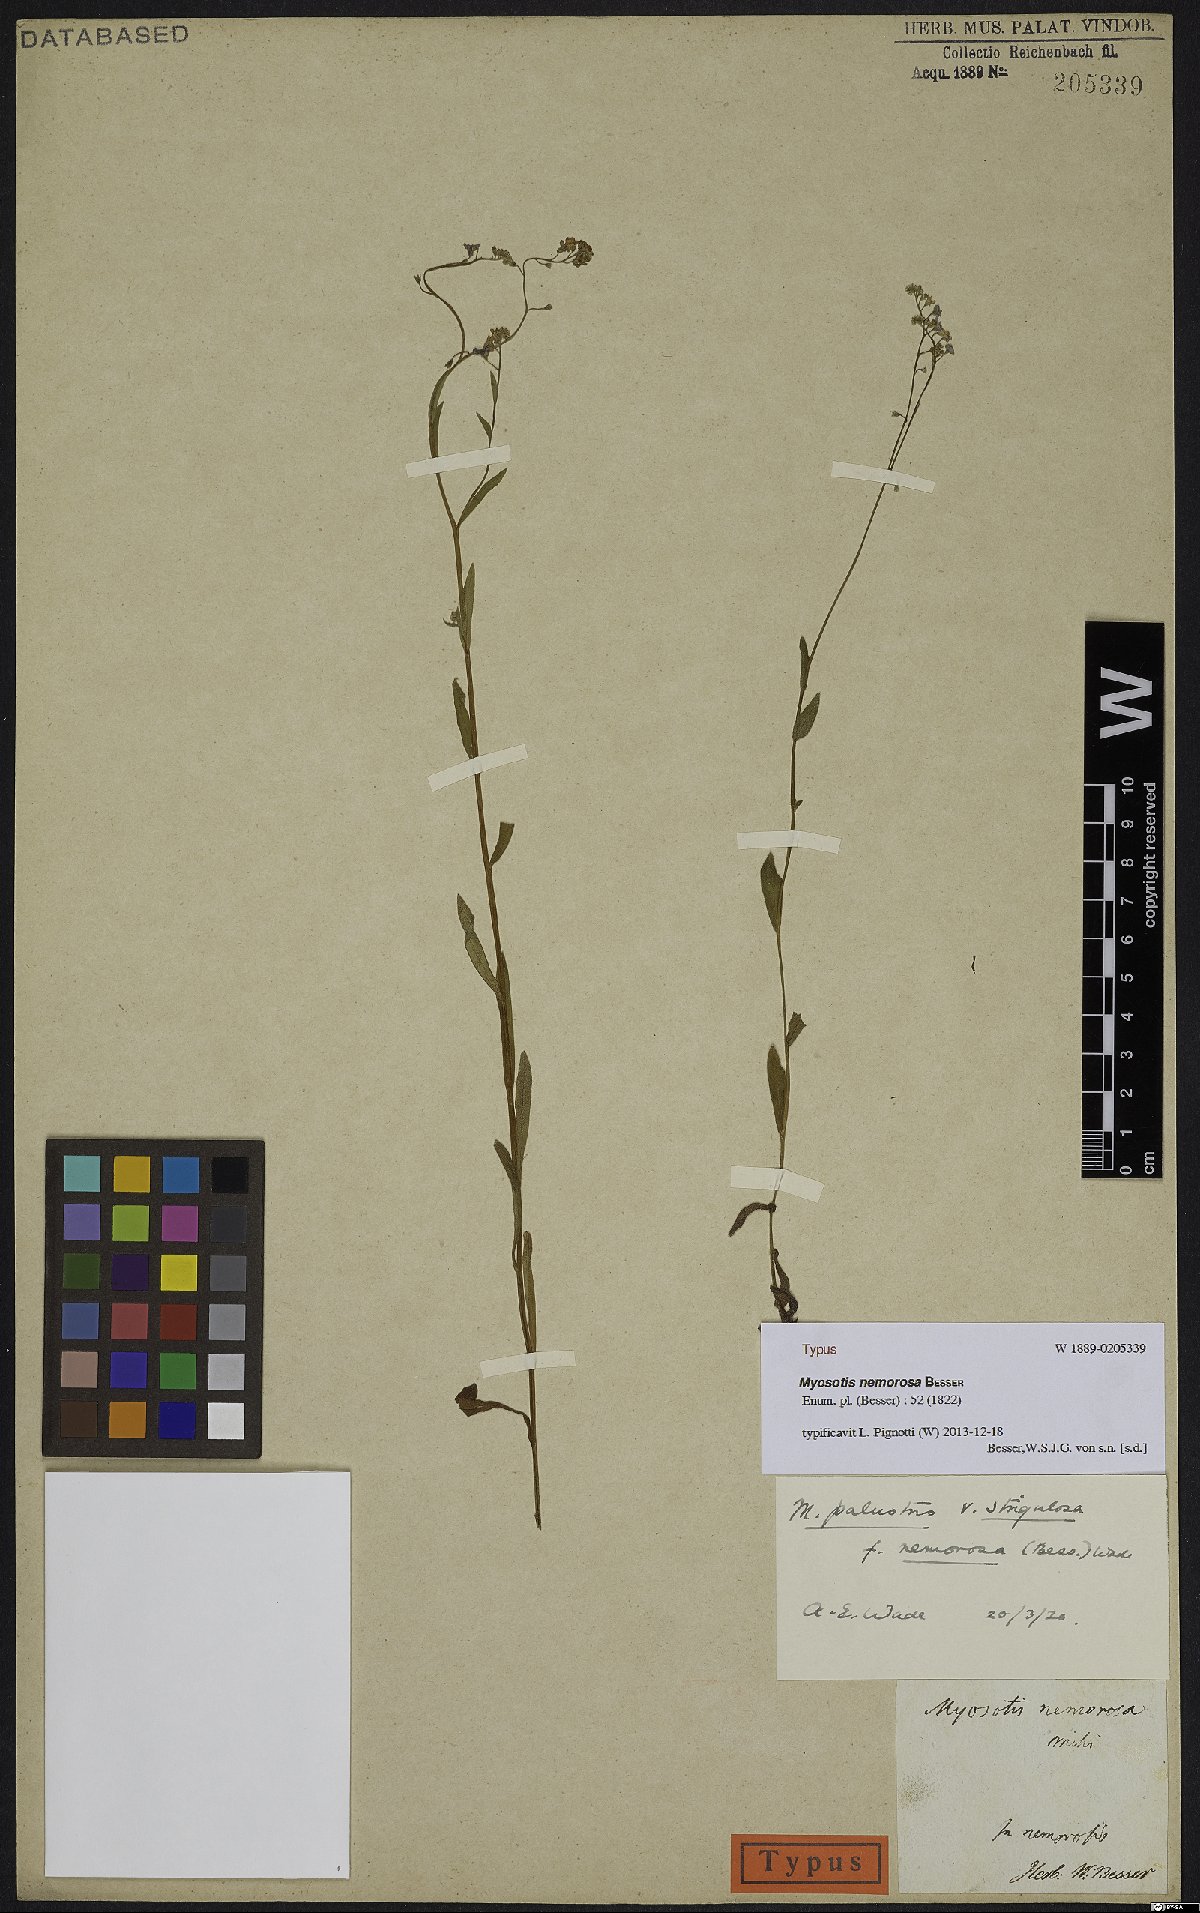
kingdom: Plantae
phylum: Tracheophyta
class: Magnoliopsida
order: Boraginales
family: Boraginaceae
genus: Myosotis
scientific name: Myosotis nemorosa
